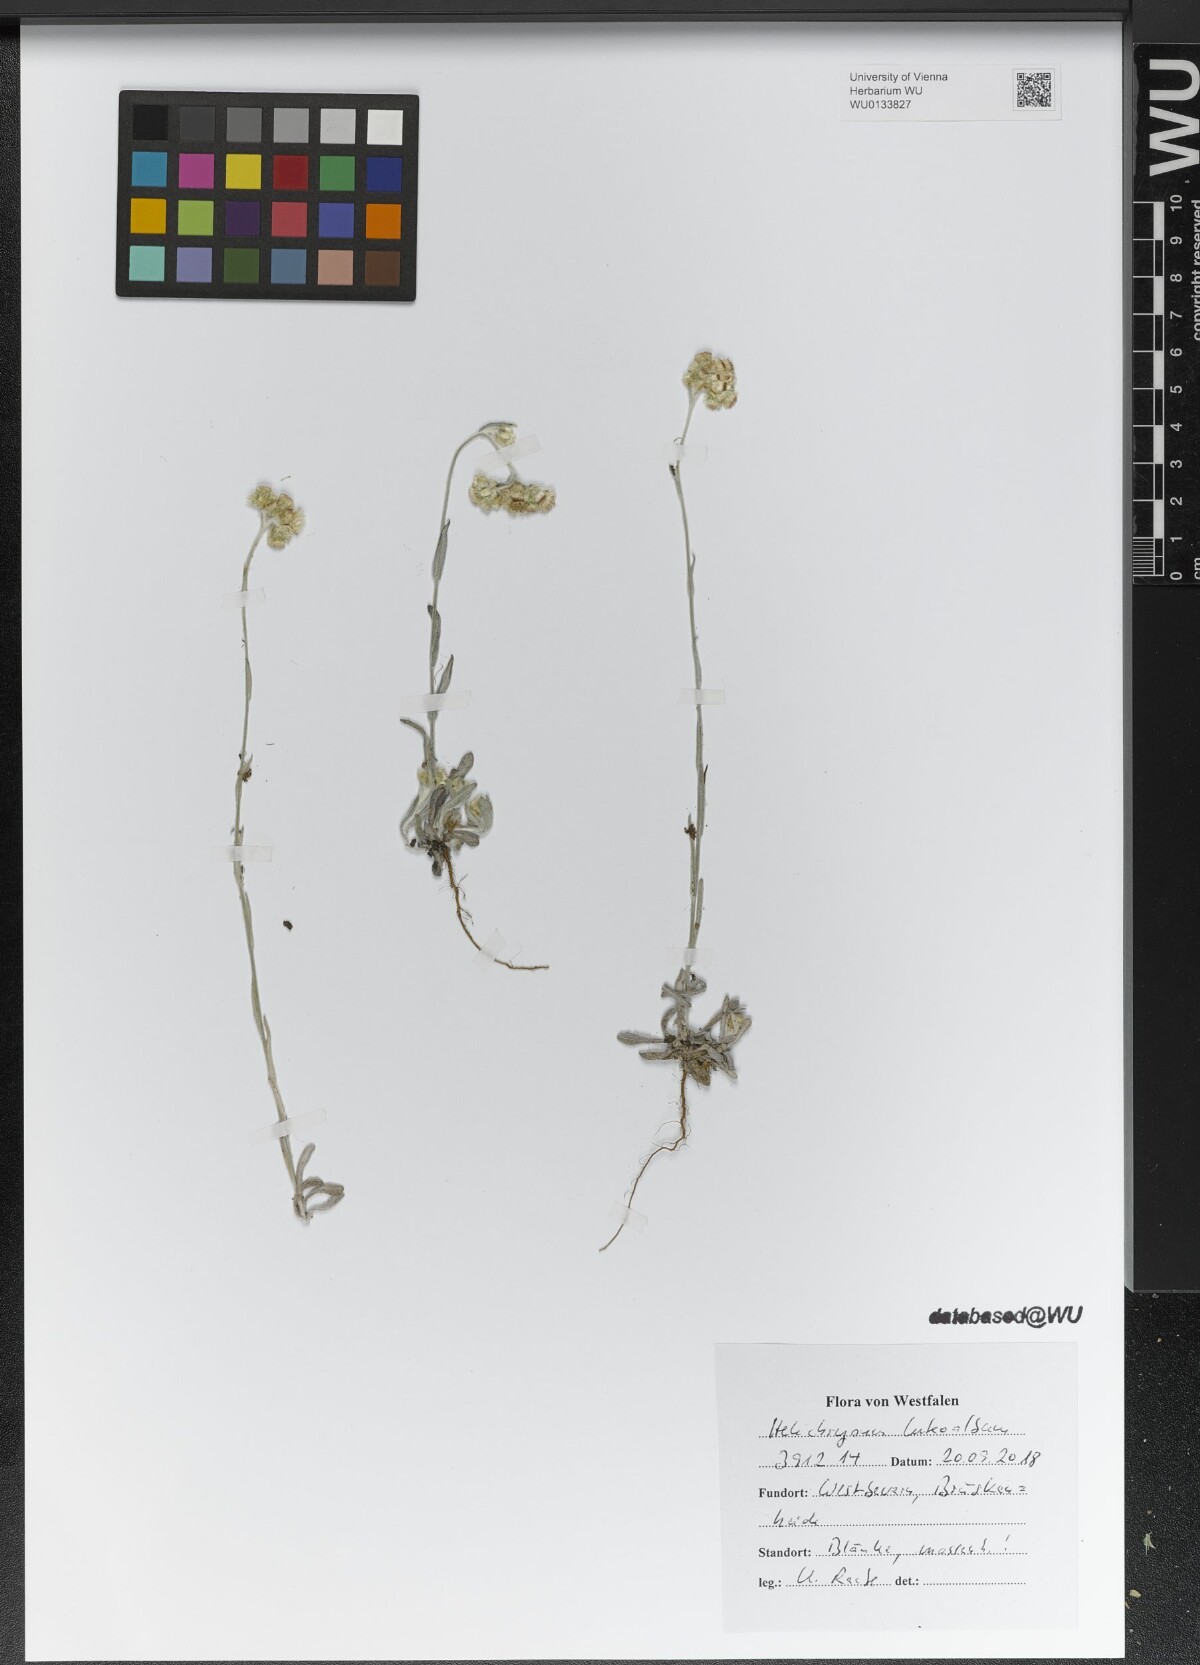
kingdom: Plantae
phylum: Tracheophyta
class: Magnoliopsida
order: Asterales
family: Asteraceae
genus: Helichrysum
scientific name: Helichrysum luteoalbum
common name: Daisy
